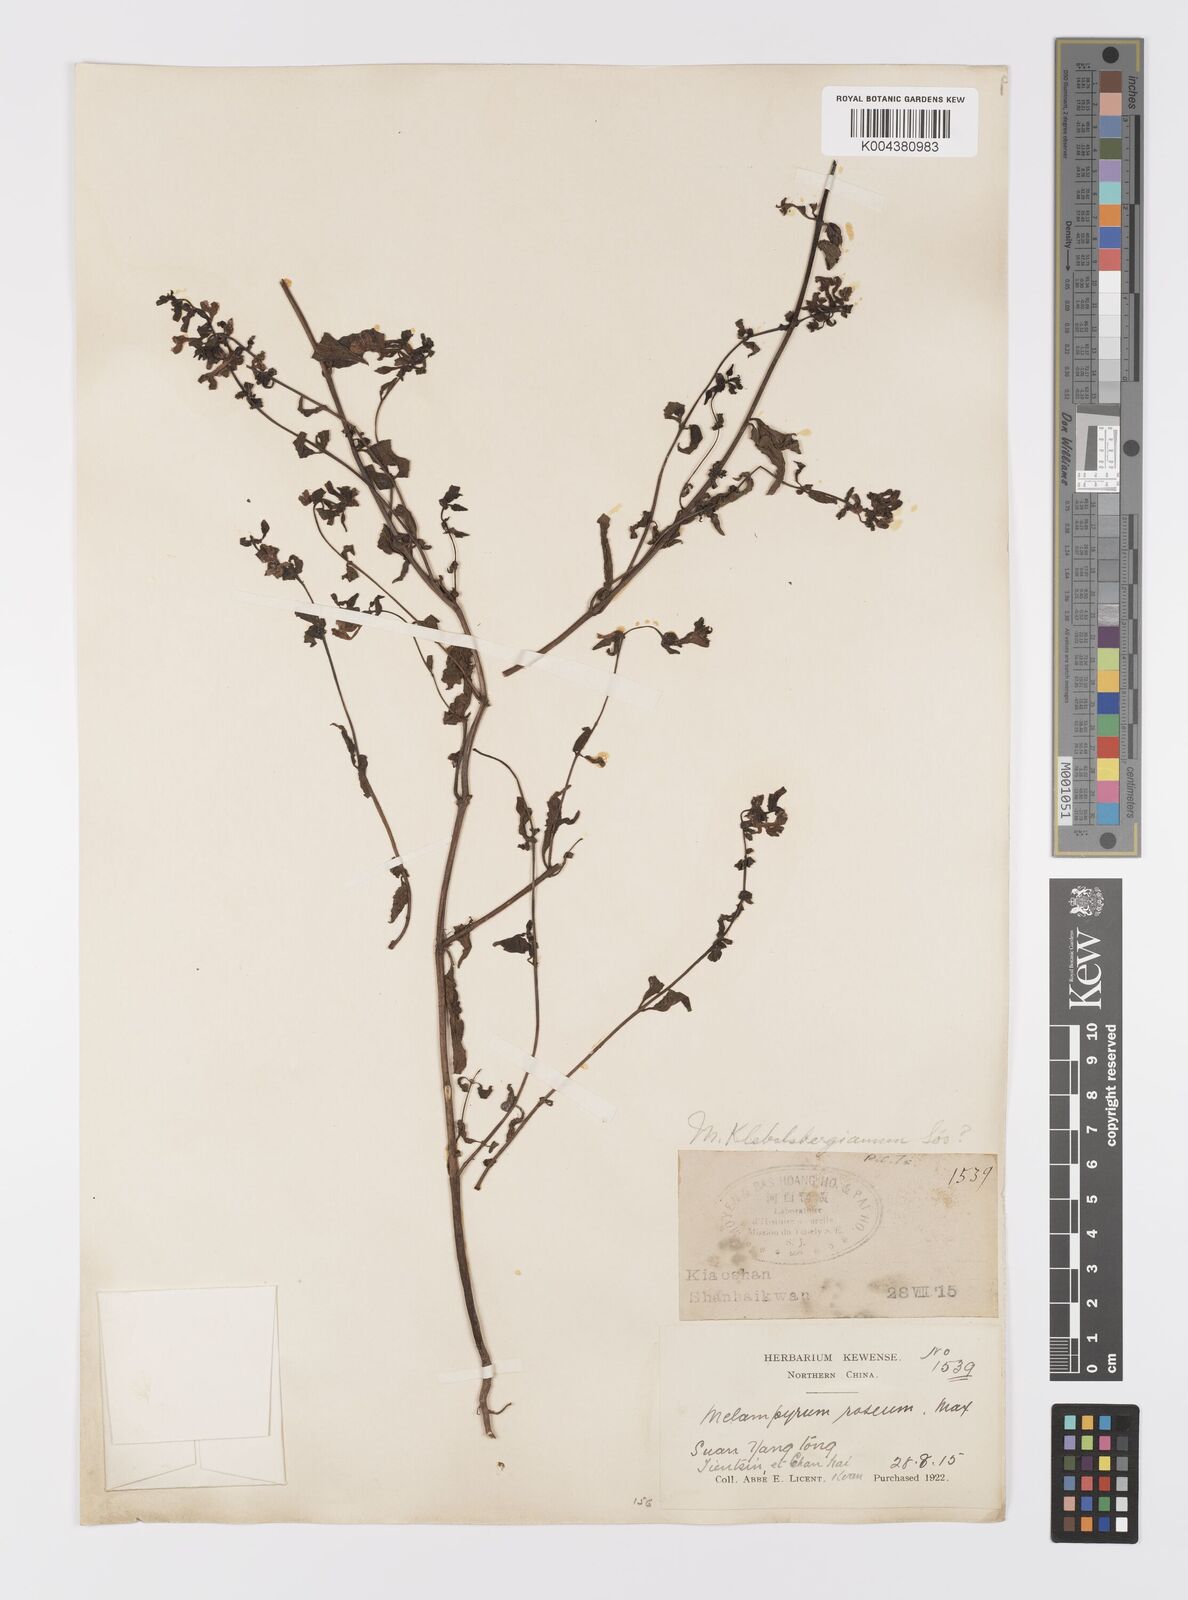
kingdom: Plantae
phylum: Tracheophyta
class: Magnoliopsida
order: Lamiales
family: Orobanchaceae
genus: Melampyrum
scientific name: Melampyrum chinense
